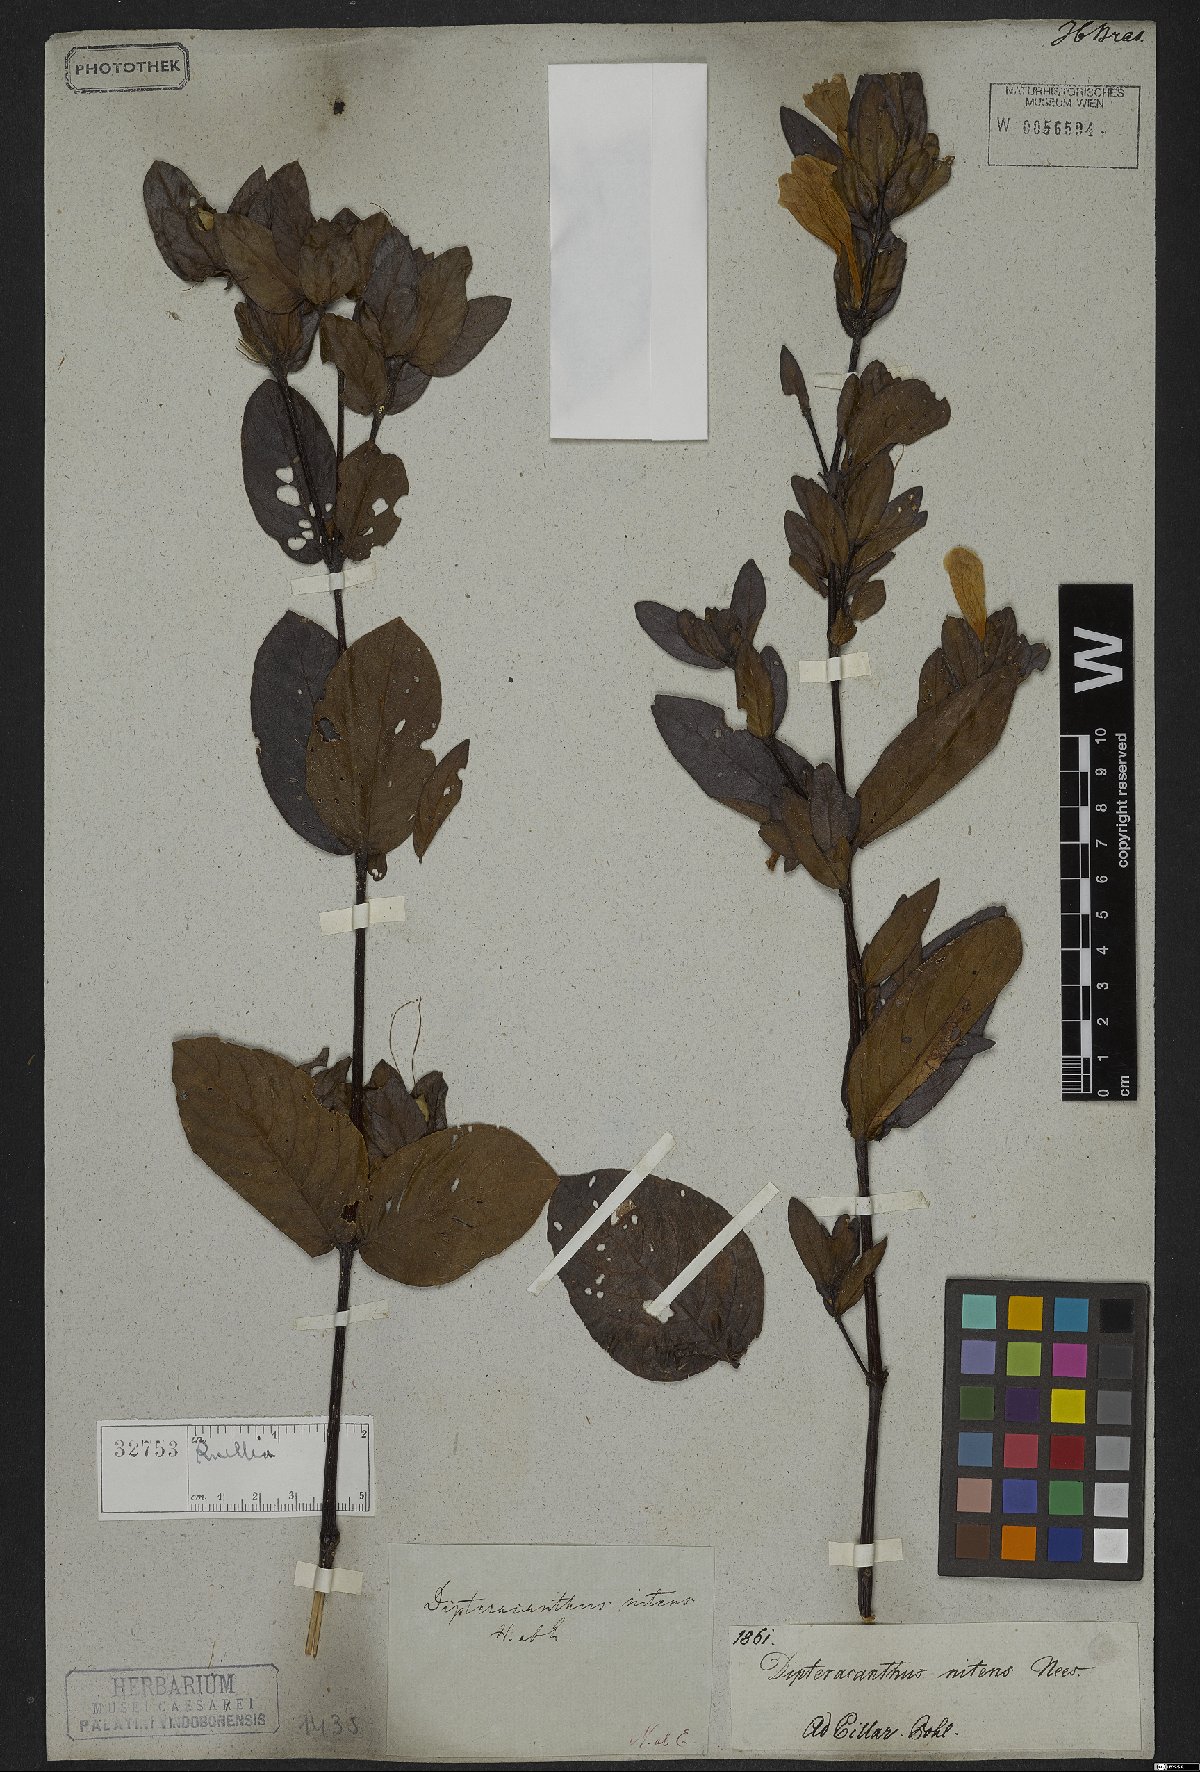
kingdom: Plantae
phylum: Tracheophyta
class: Magnoliopsida
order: Lamiales
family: Acanthaceae
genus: Ruellia
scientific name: Ruellia nitens
